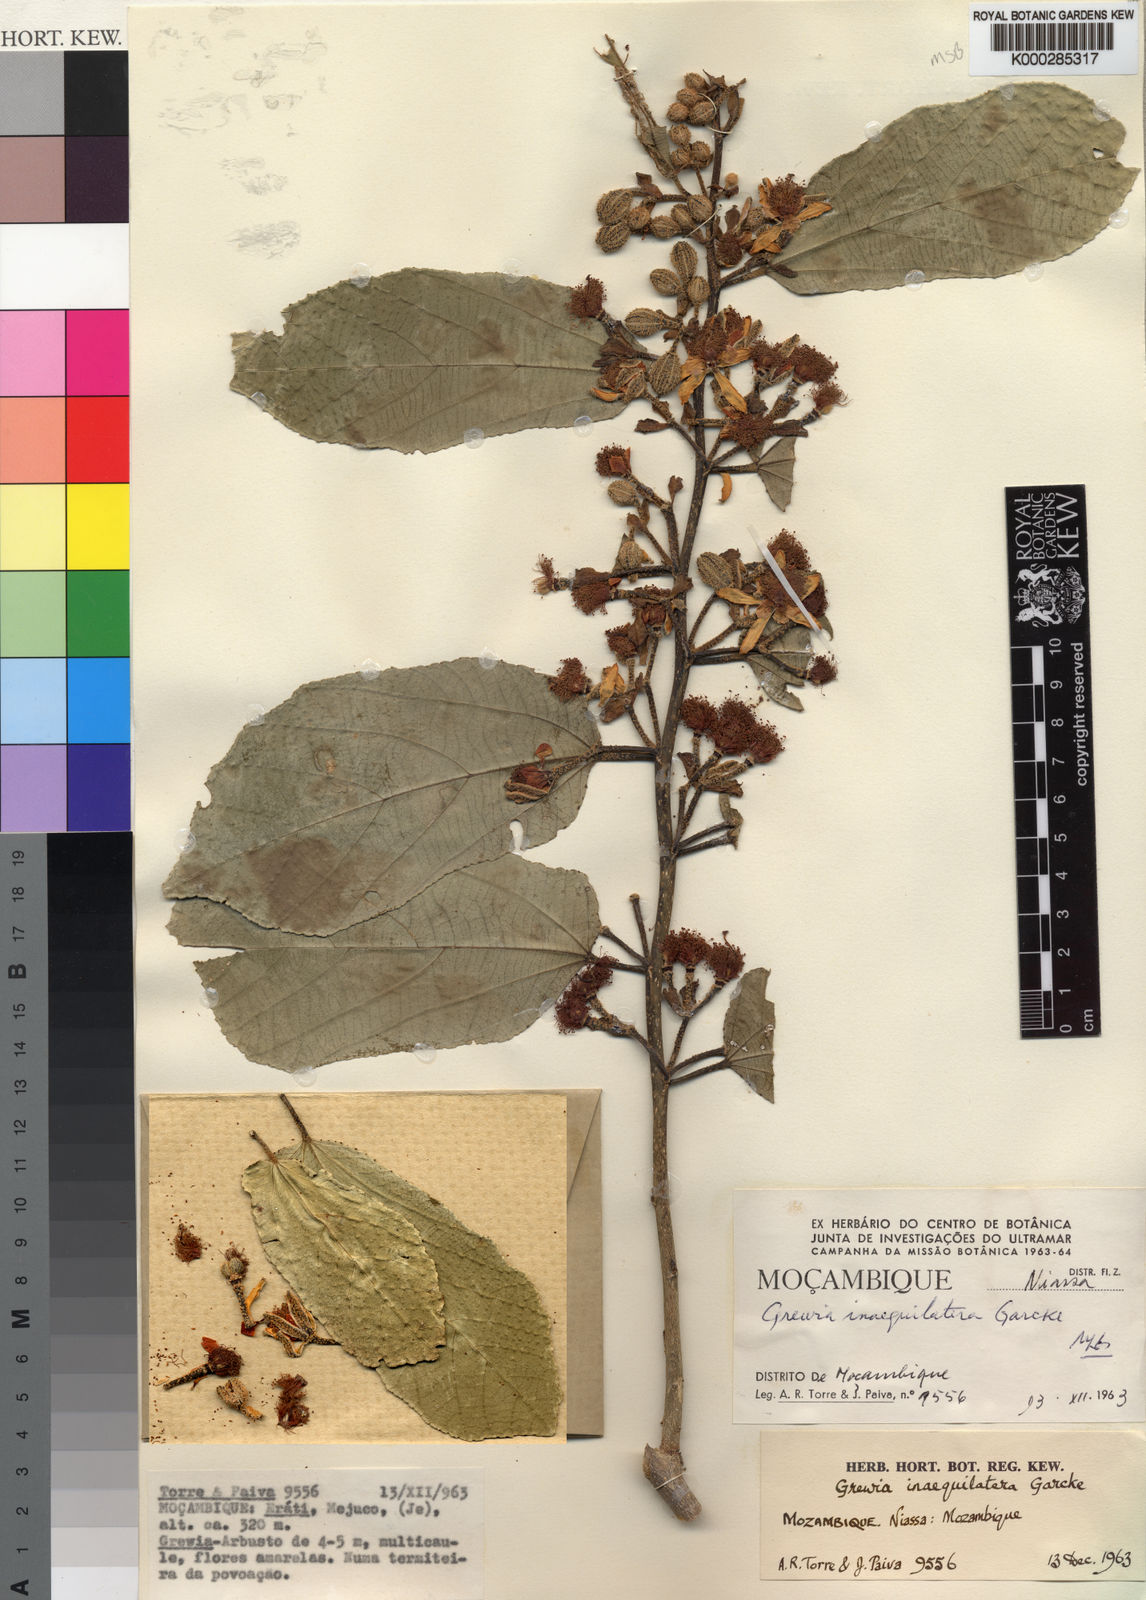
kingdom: Plantae
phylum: Tracheophyta
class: Magnoliopsida
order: Malvales
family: Malvaceae
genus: Grewia
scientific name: Grewia inaequilatera
